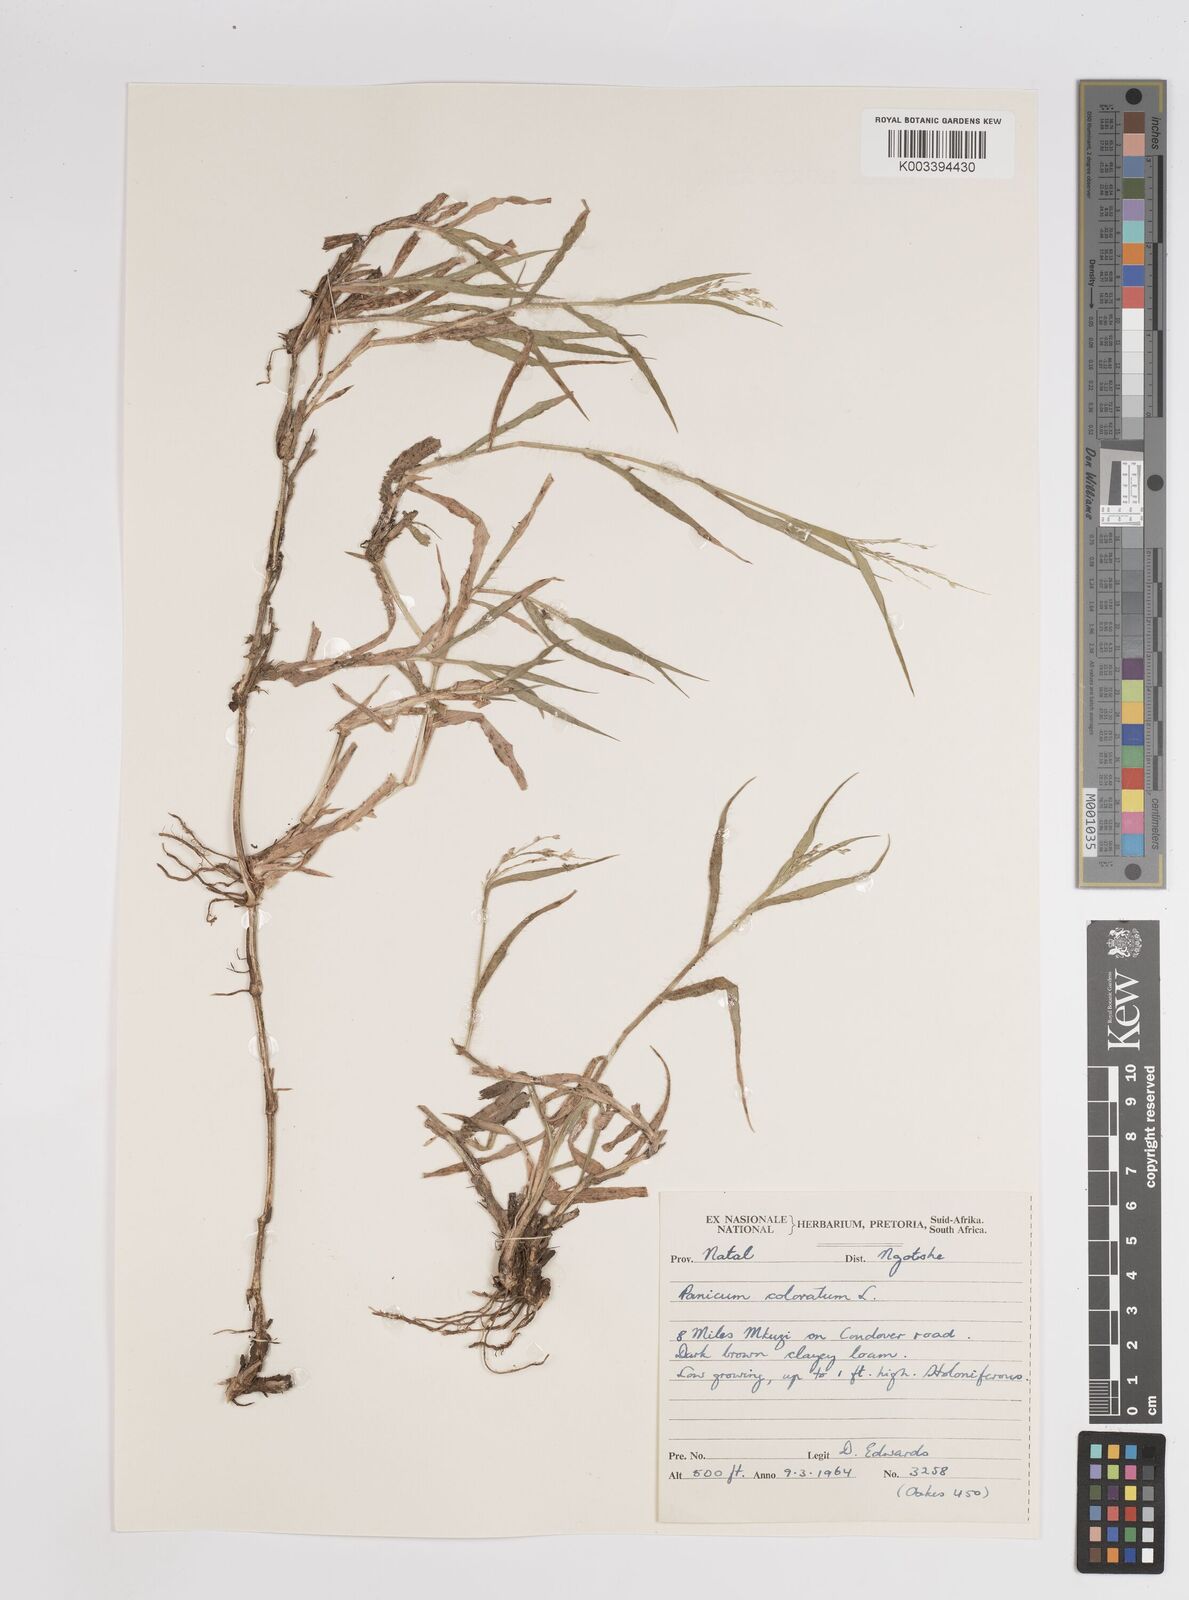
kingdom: Plantae
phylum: Tracheophyta
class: Liliopsida
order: Poales
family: Poaceae
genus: Panicum
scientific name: Panicum
